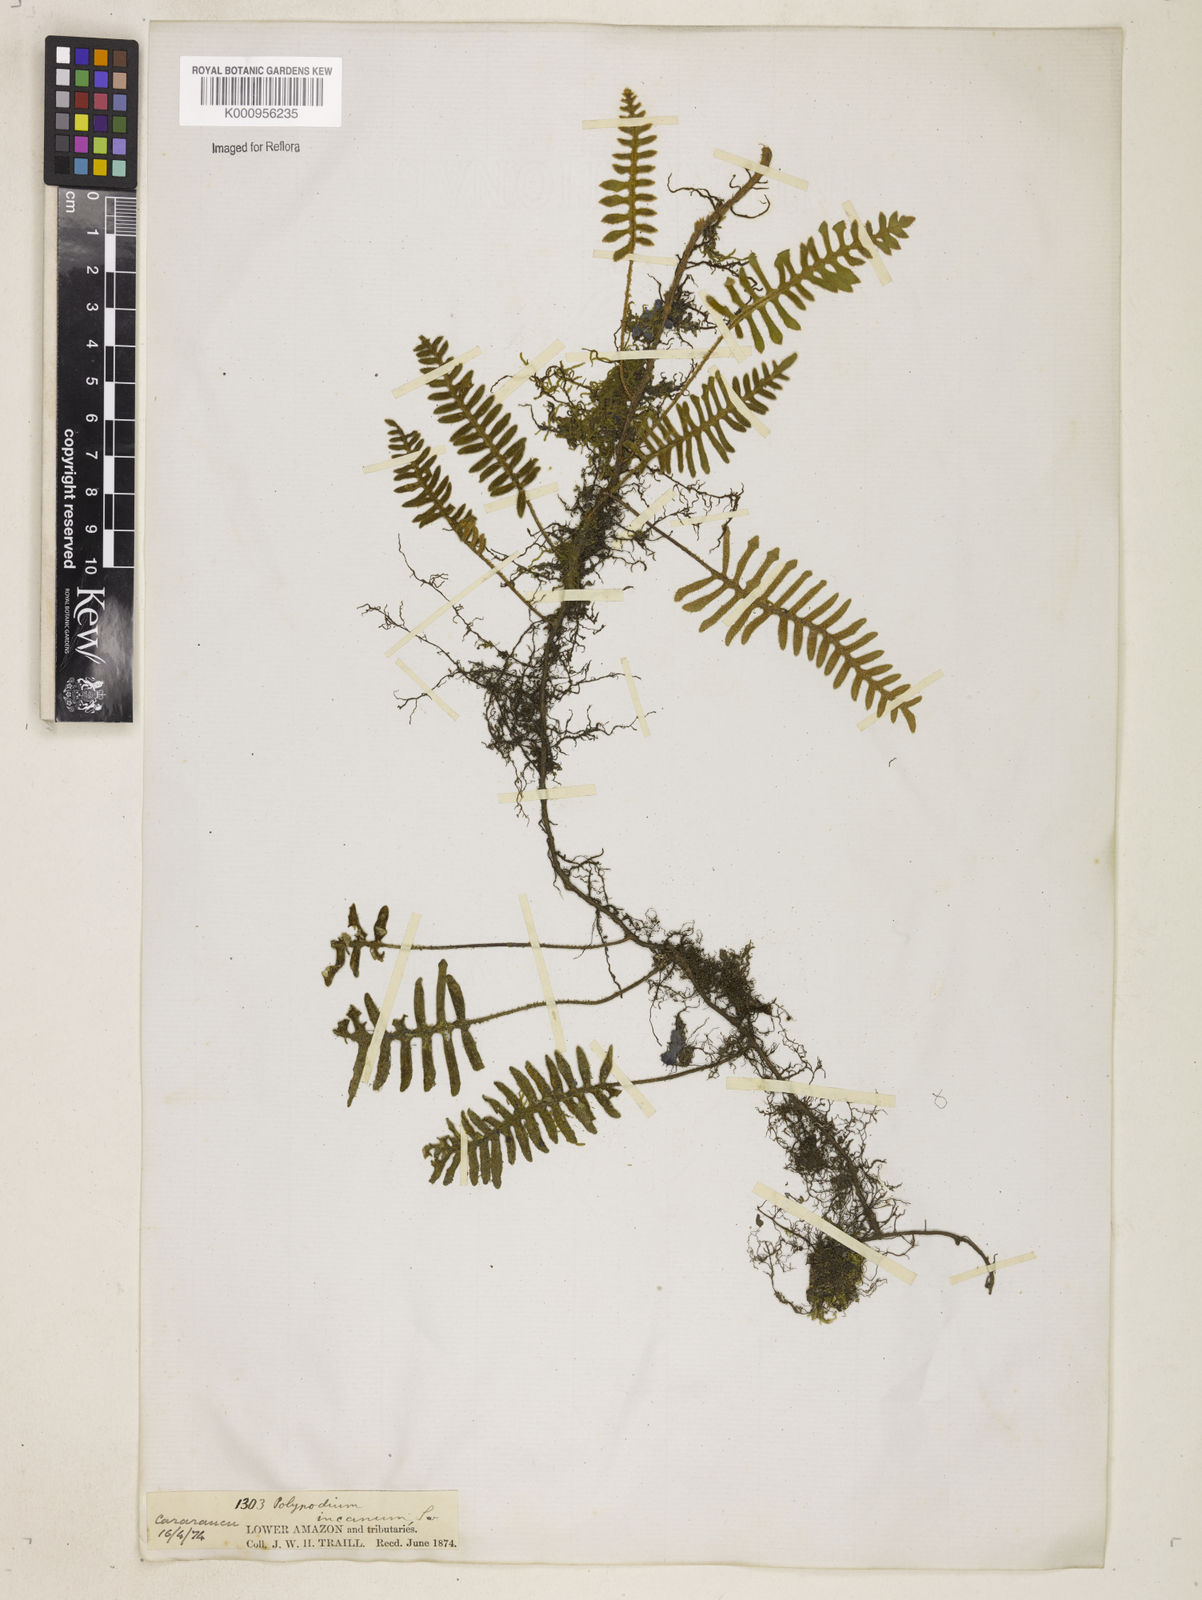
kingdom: Plantae
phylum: Tracheophyta
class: Polypodiopsida
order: Polypodiales
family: Polypodiaceae
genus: Pleopeltis
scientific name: Pleopeltis hirsutissima
